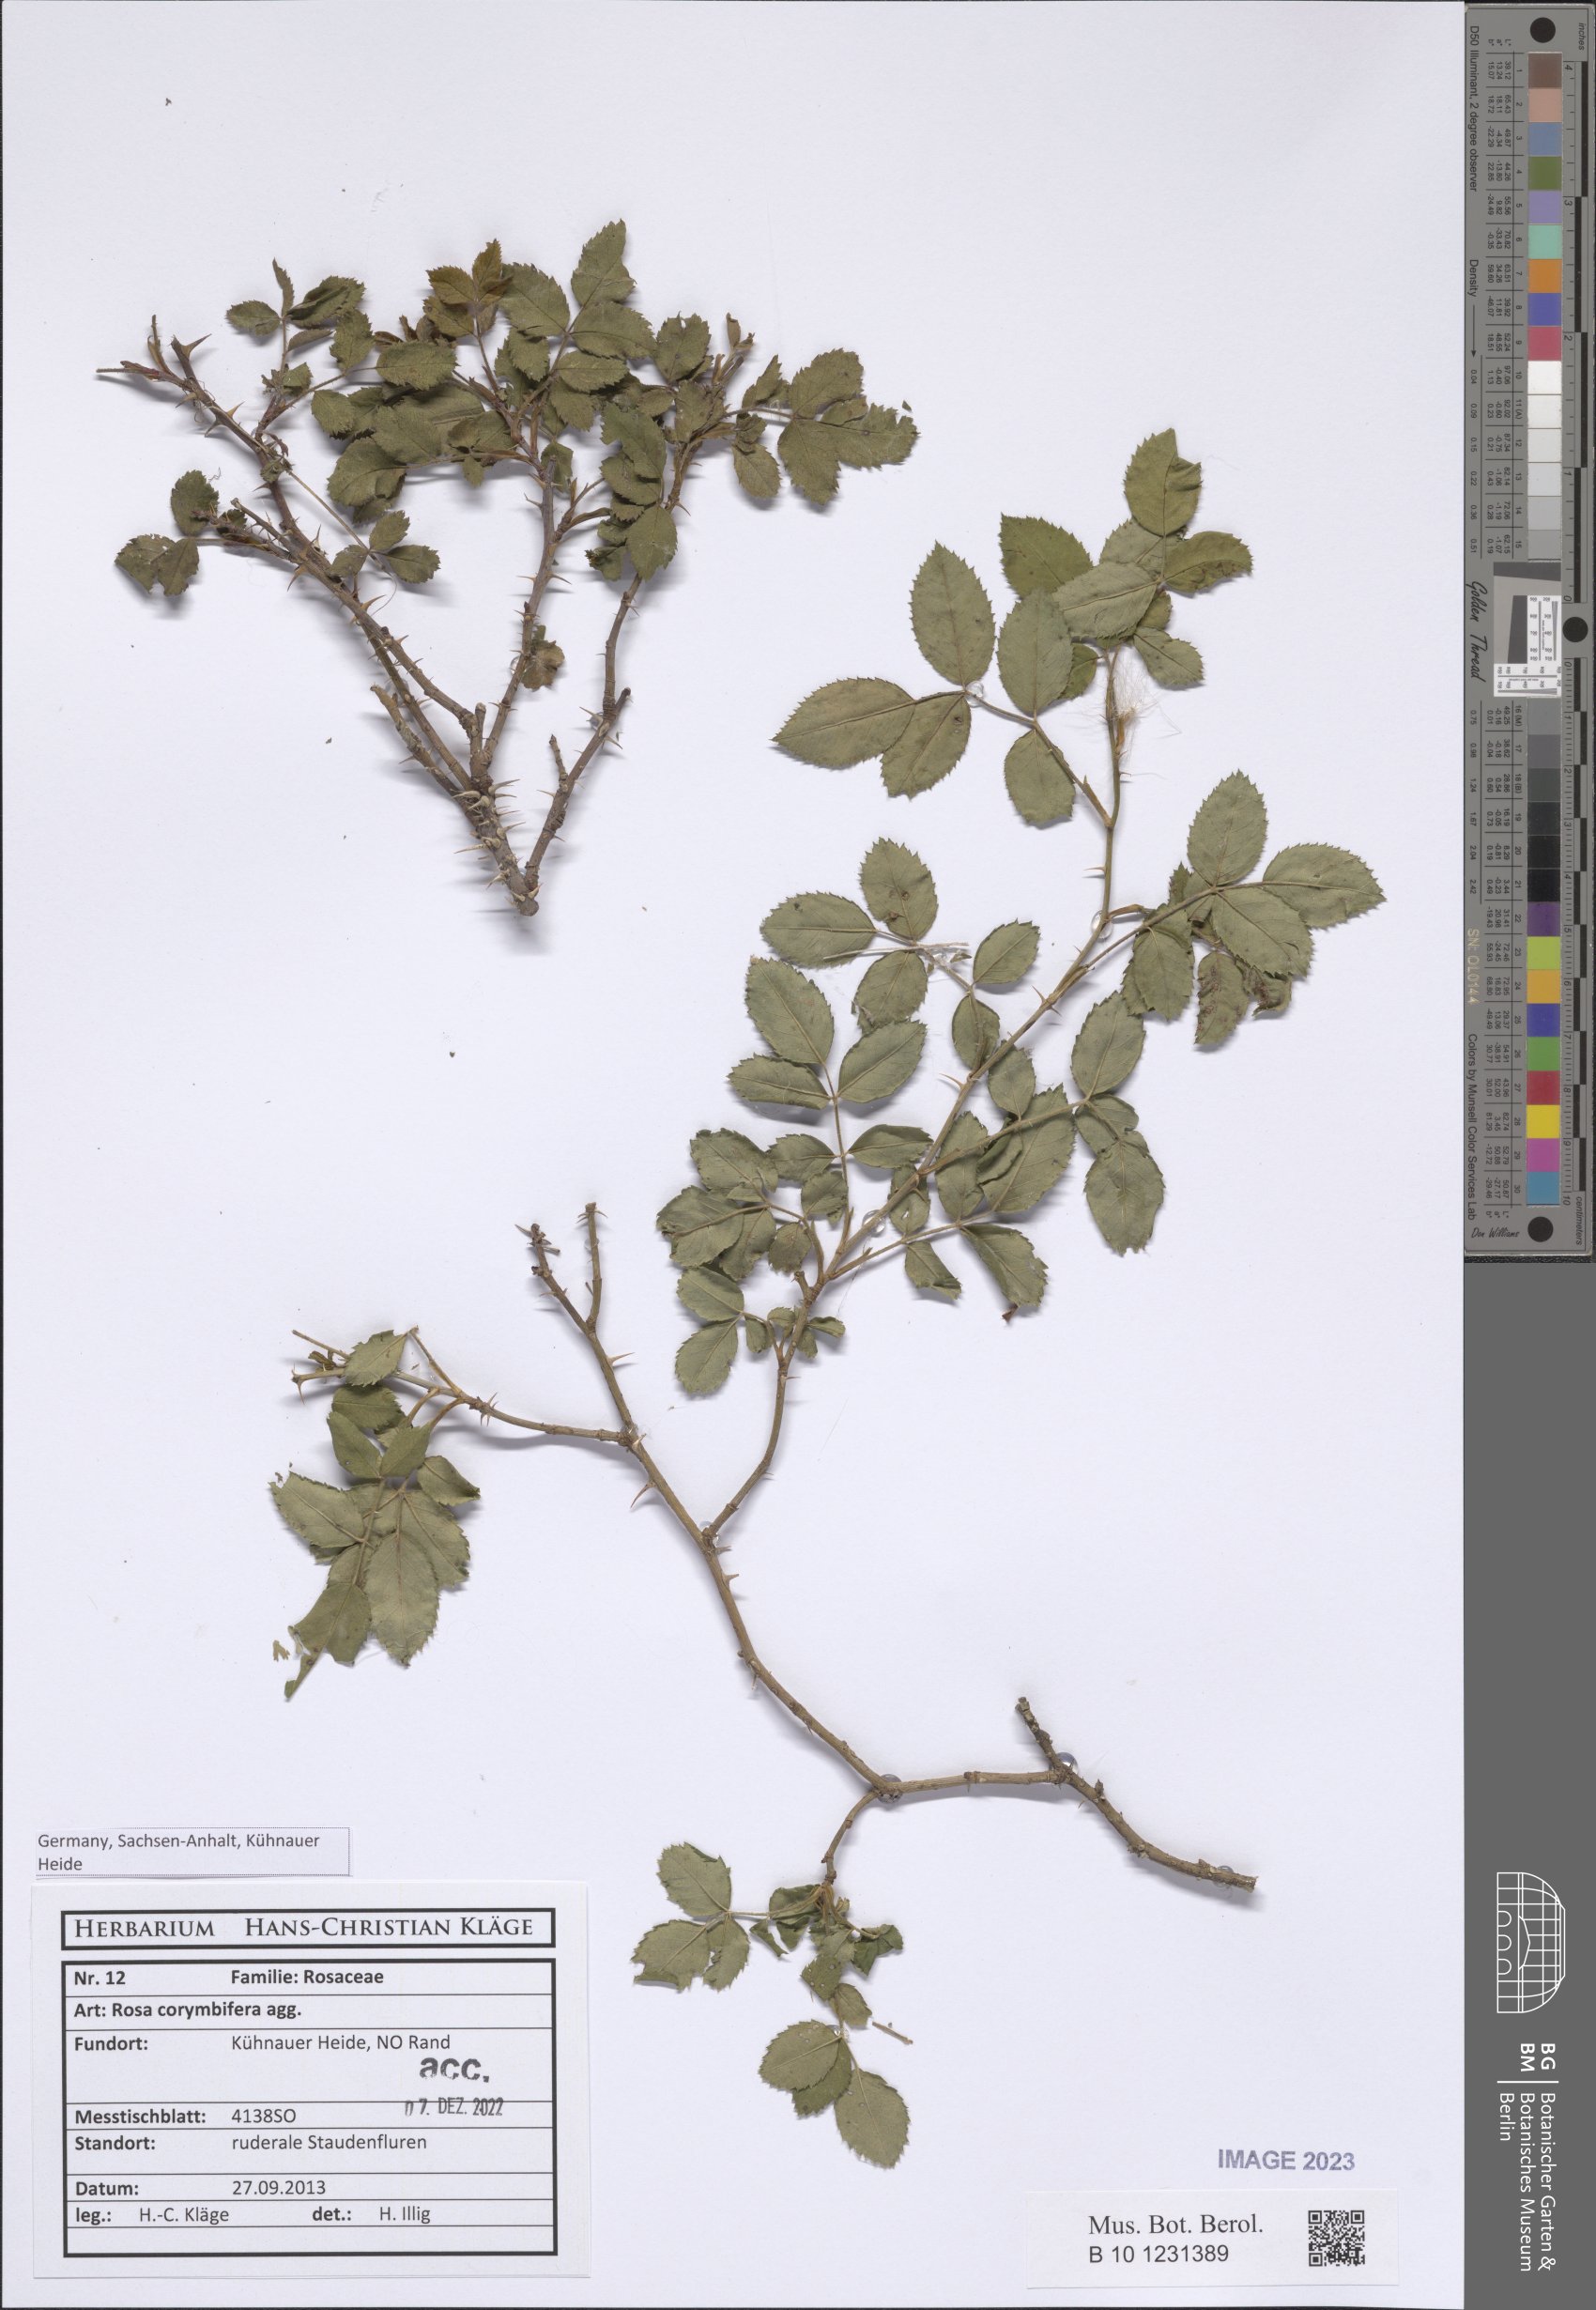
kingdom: Plantae
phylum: Tracheophyta
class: Magnoliopsida
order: Rosales
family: Rosaceae
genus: Rosa
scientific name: Rosa corymbifera
